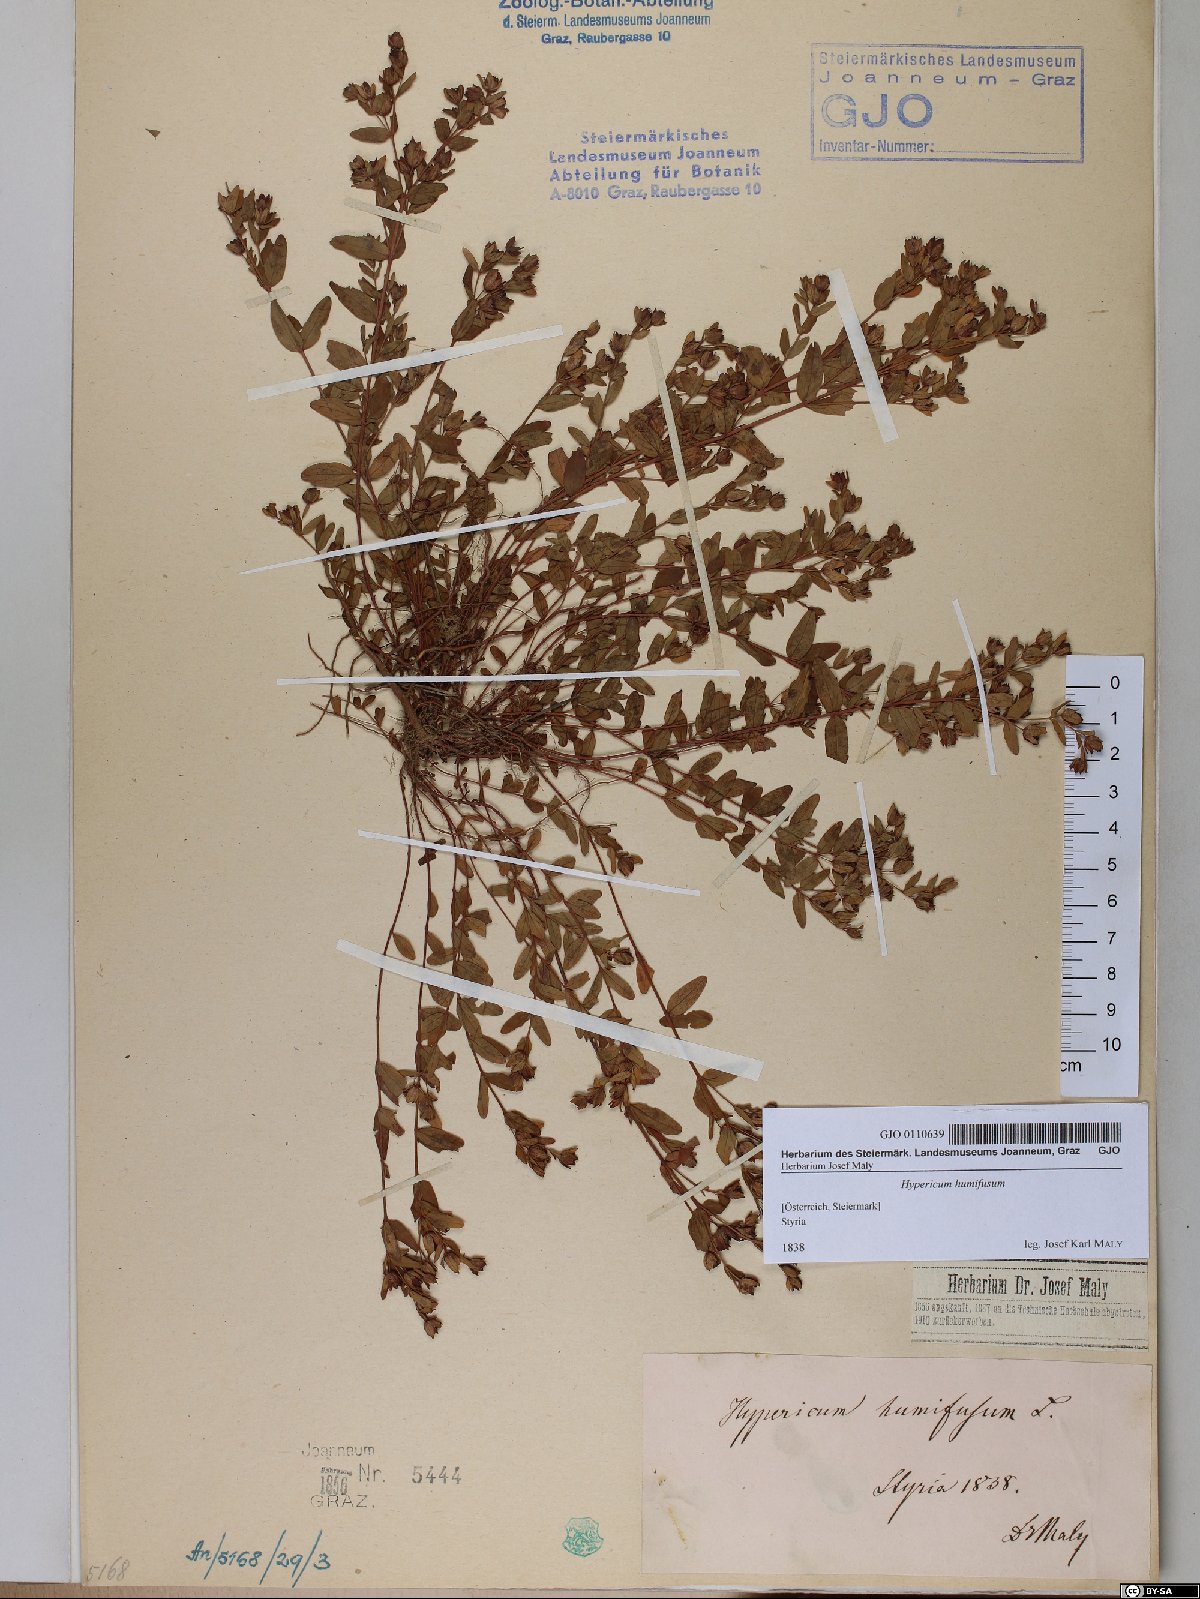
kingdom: Plantae
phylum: Tracheophyta
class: Magnoliopsida
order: Malpighiales
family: Hypericaceae
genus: Hypericum
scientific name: Hypericum humifusum
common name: Trailing st. john's-wort
